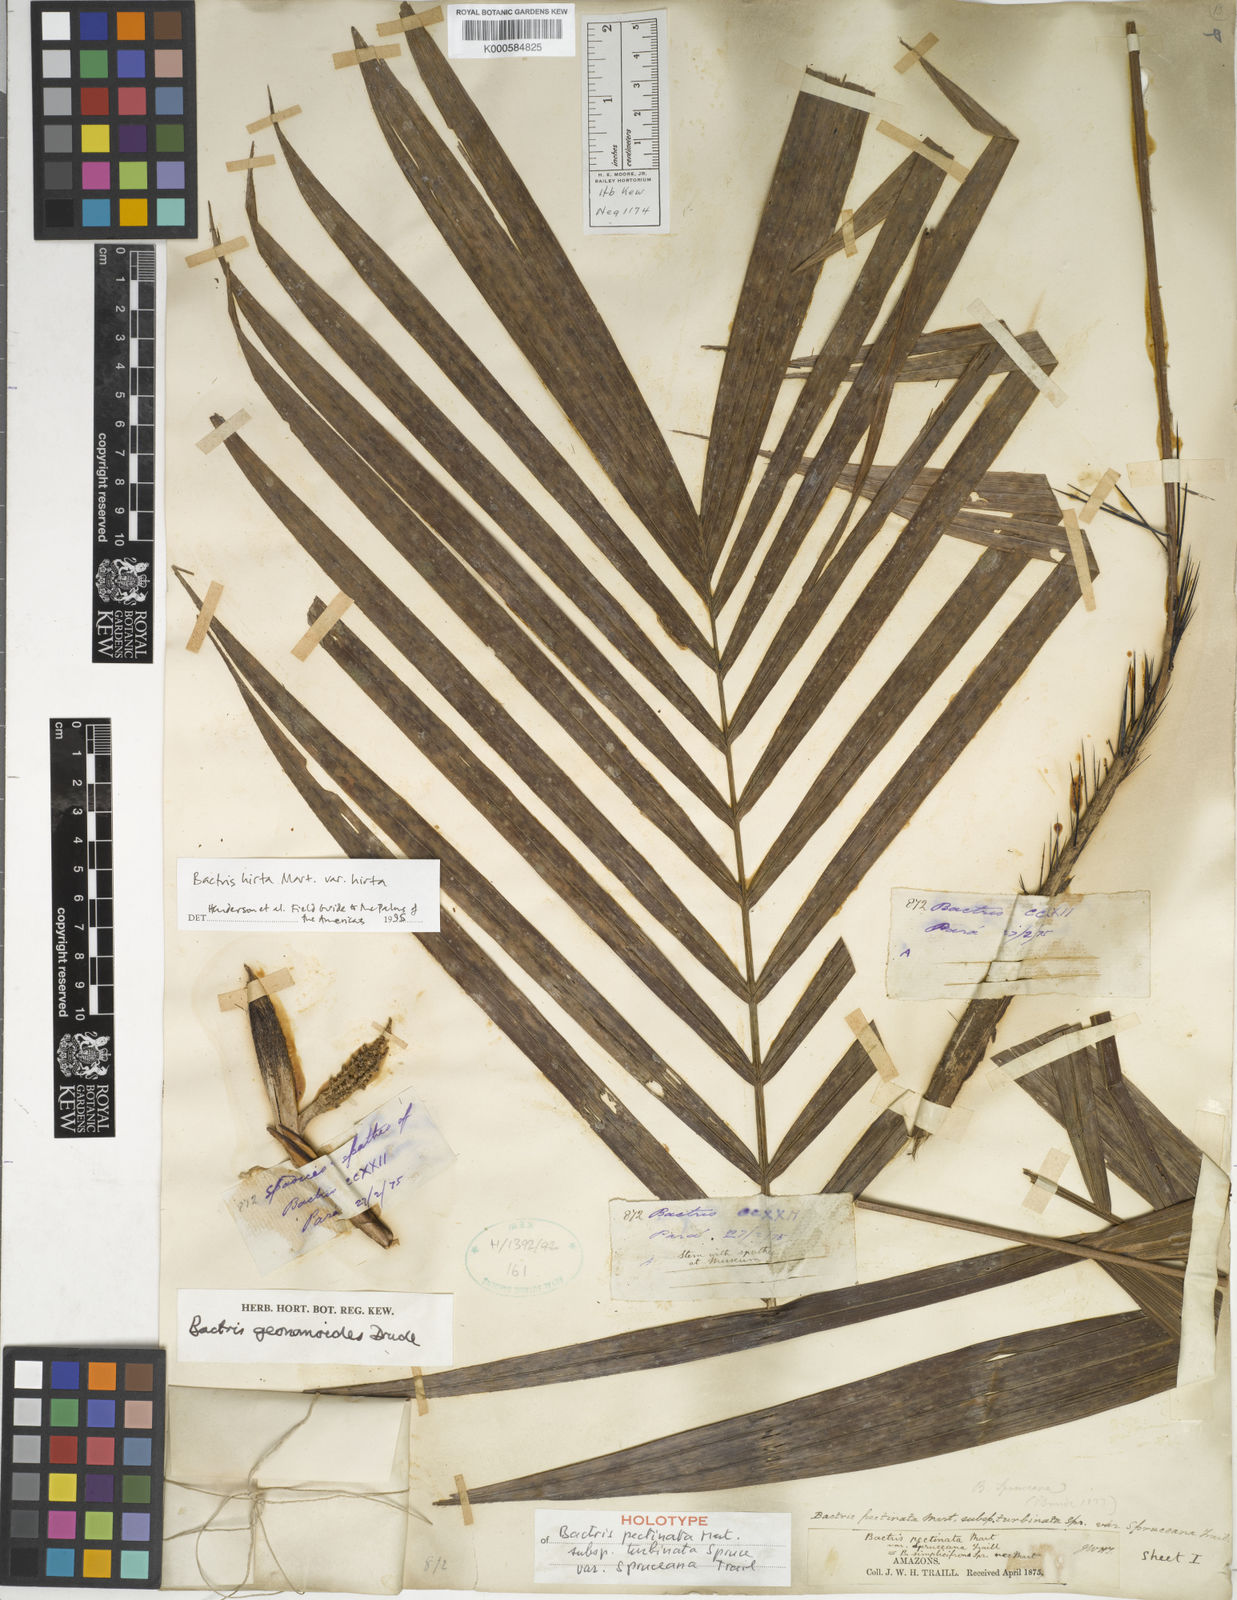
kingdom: Plantae
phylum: Tracheophyta
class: Liliopsida
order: Arecales
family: Arecaceae
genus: Bactris
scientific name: Bactris hirta
